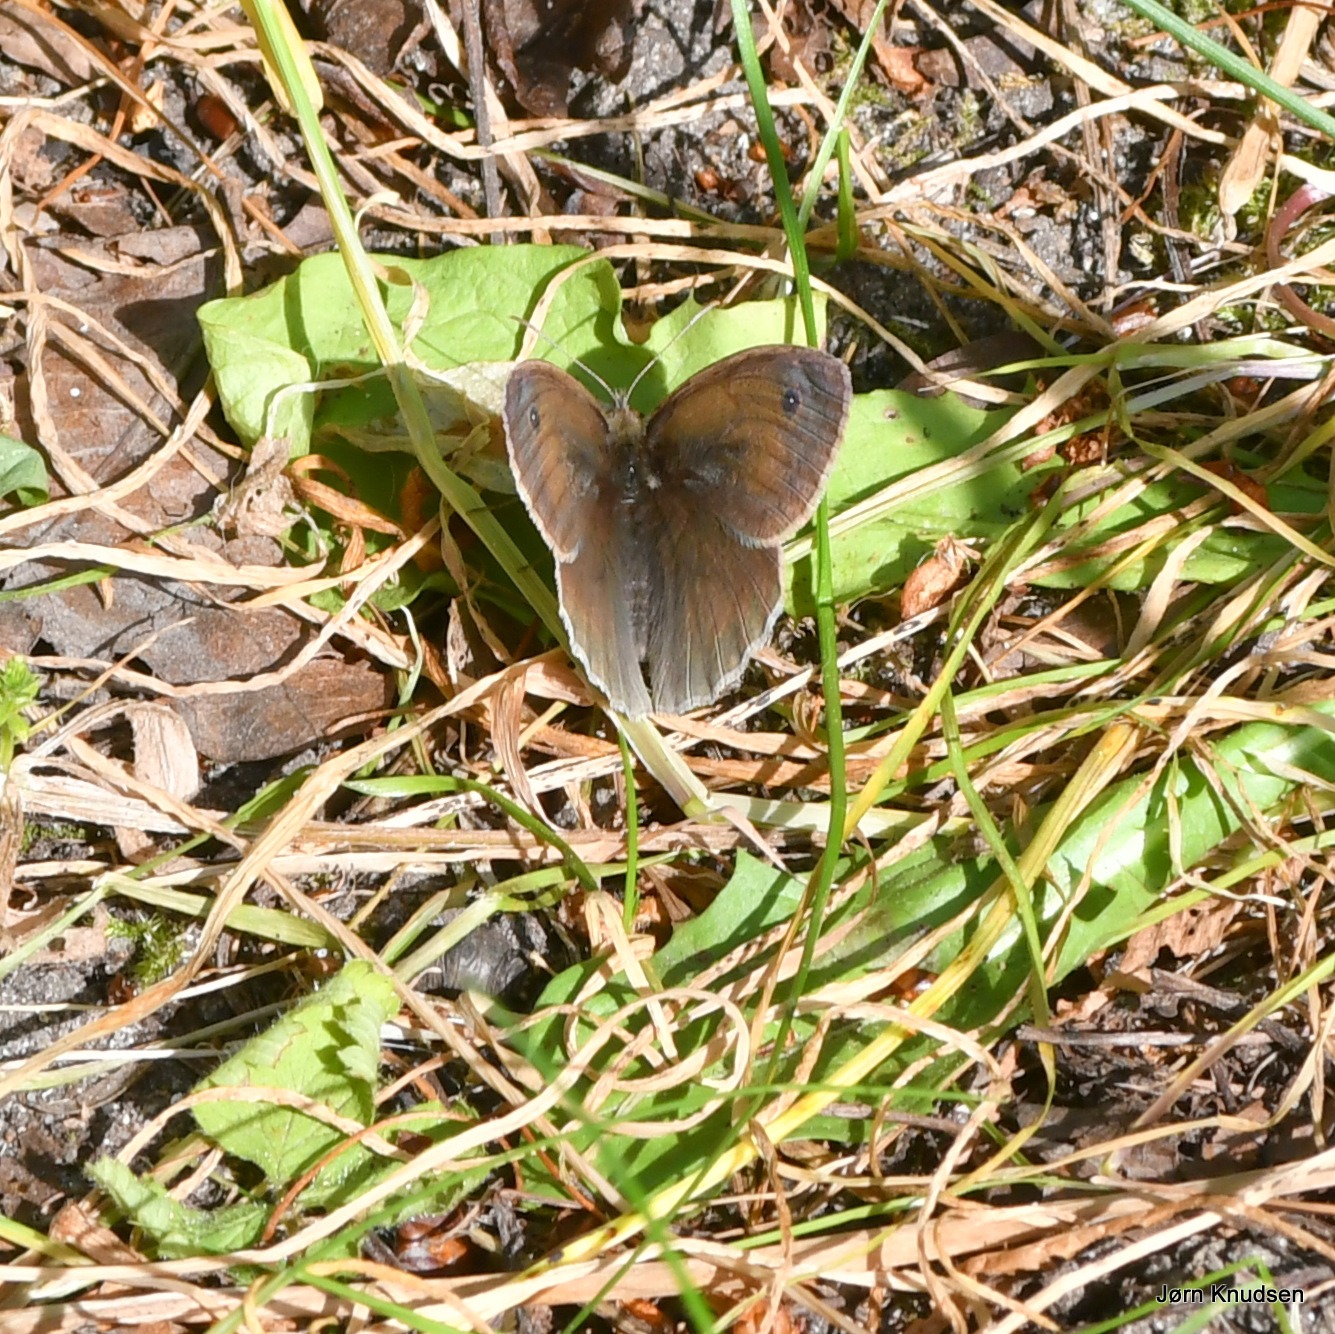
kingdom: Animalia
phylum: Arthropoda
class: Insecta
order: Lepidoptera
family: Nymphalidae
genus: Maniola
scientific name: Maniola jurtina
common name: Græsrandøje
